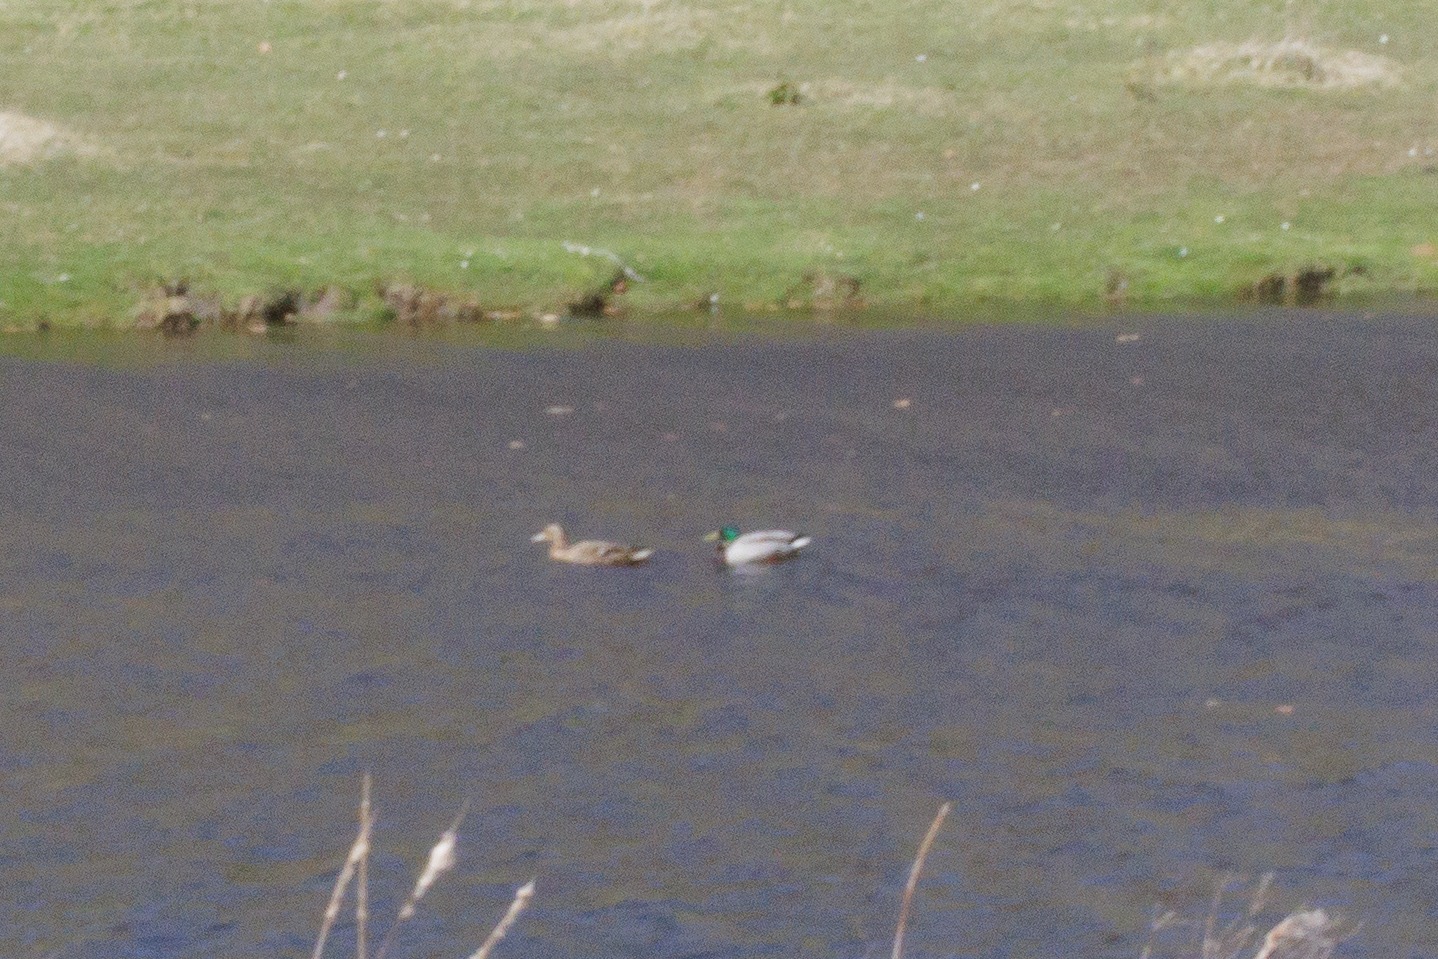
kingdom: Animalia
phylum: Chordata
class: Aves
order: Anseriformes
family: Anatidae
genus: Anas
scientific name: Anas platyrhynchos
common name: Gråand
